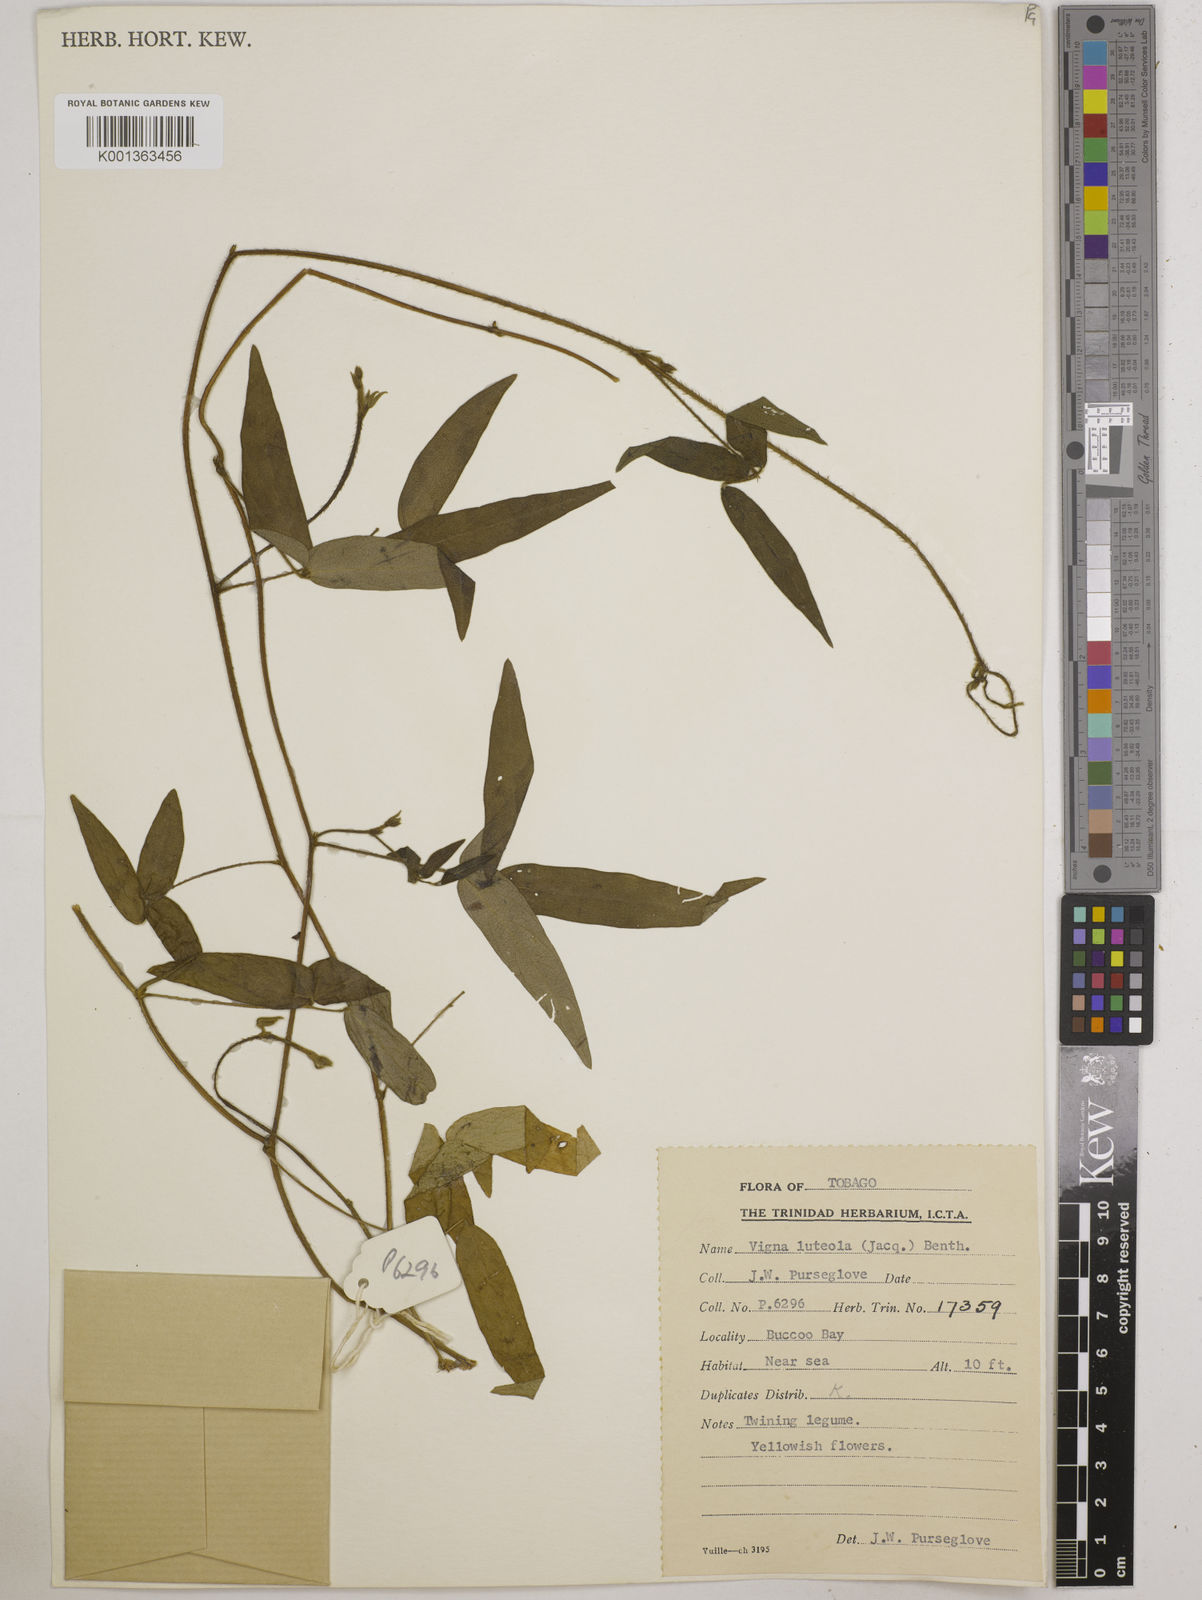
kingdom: Plantae
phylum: Tracheophyta
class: Magnoliopsida
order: Fabales
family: Fabaceae
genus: Vigna
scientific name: Vigna luteola
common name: Hairypod cowpea
